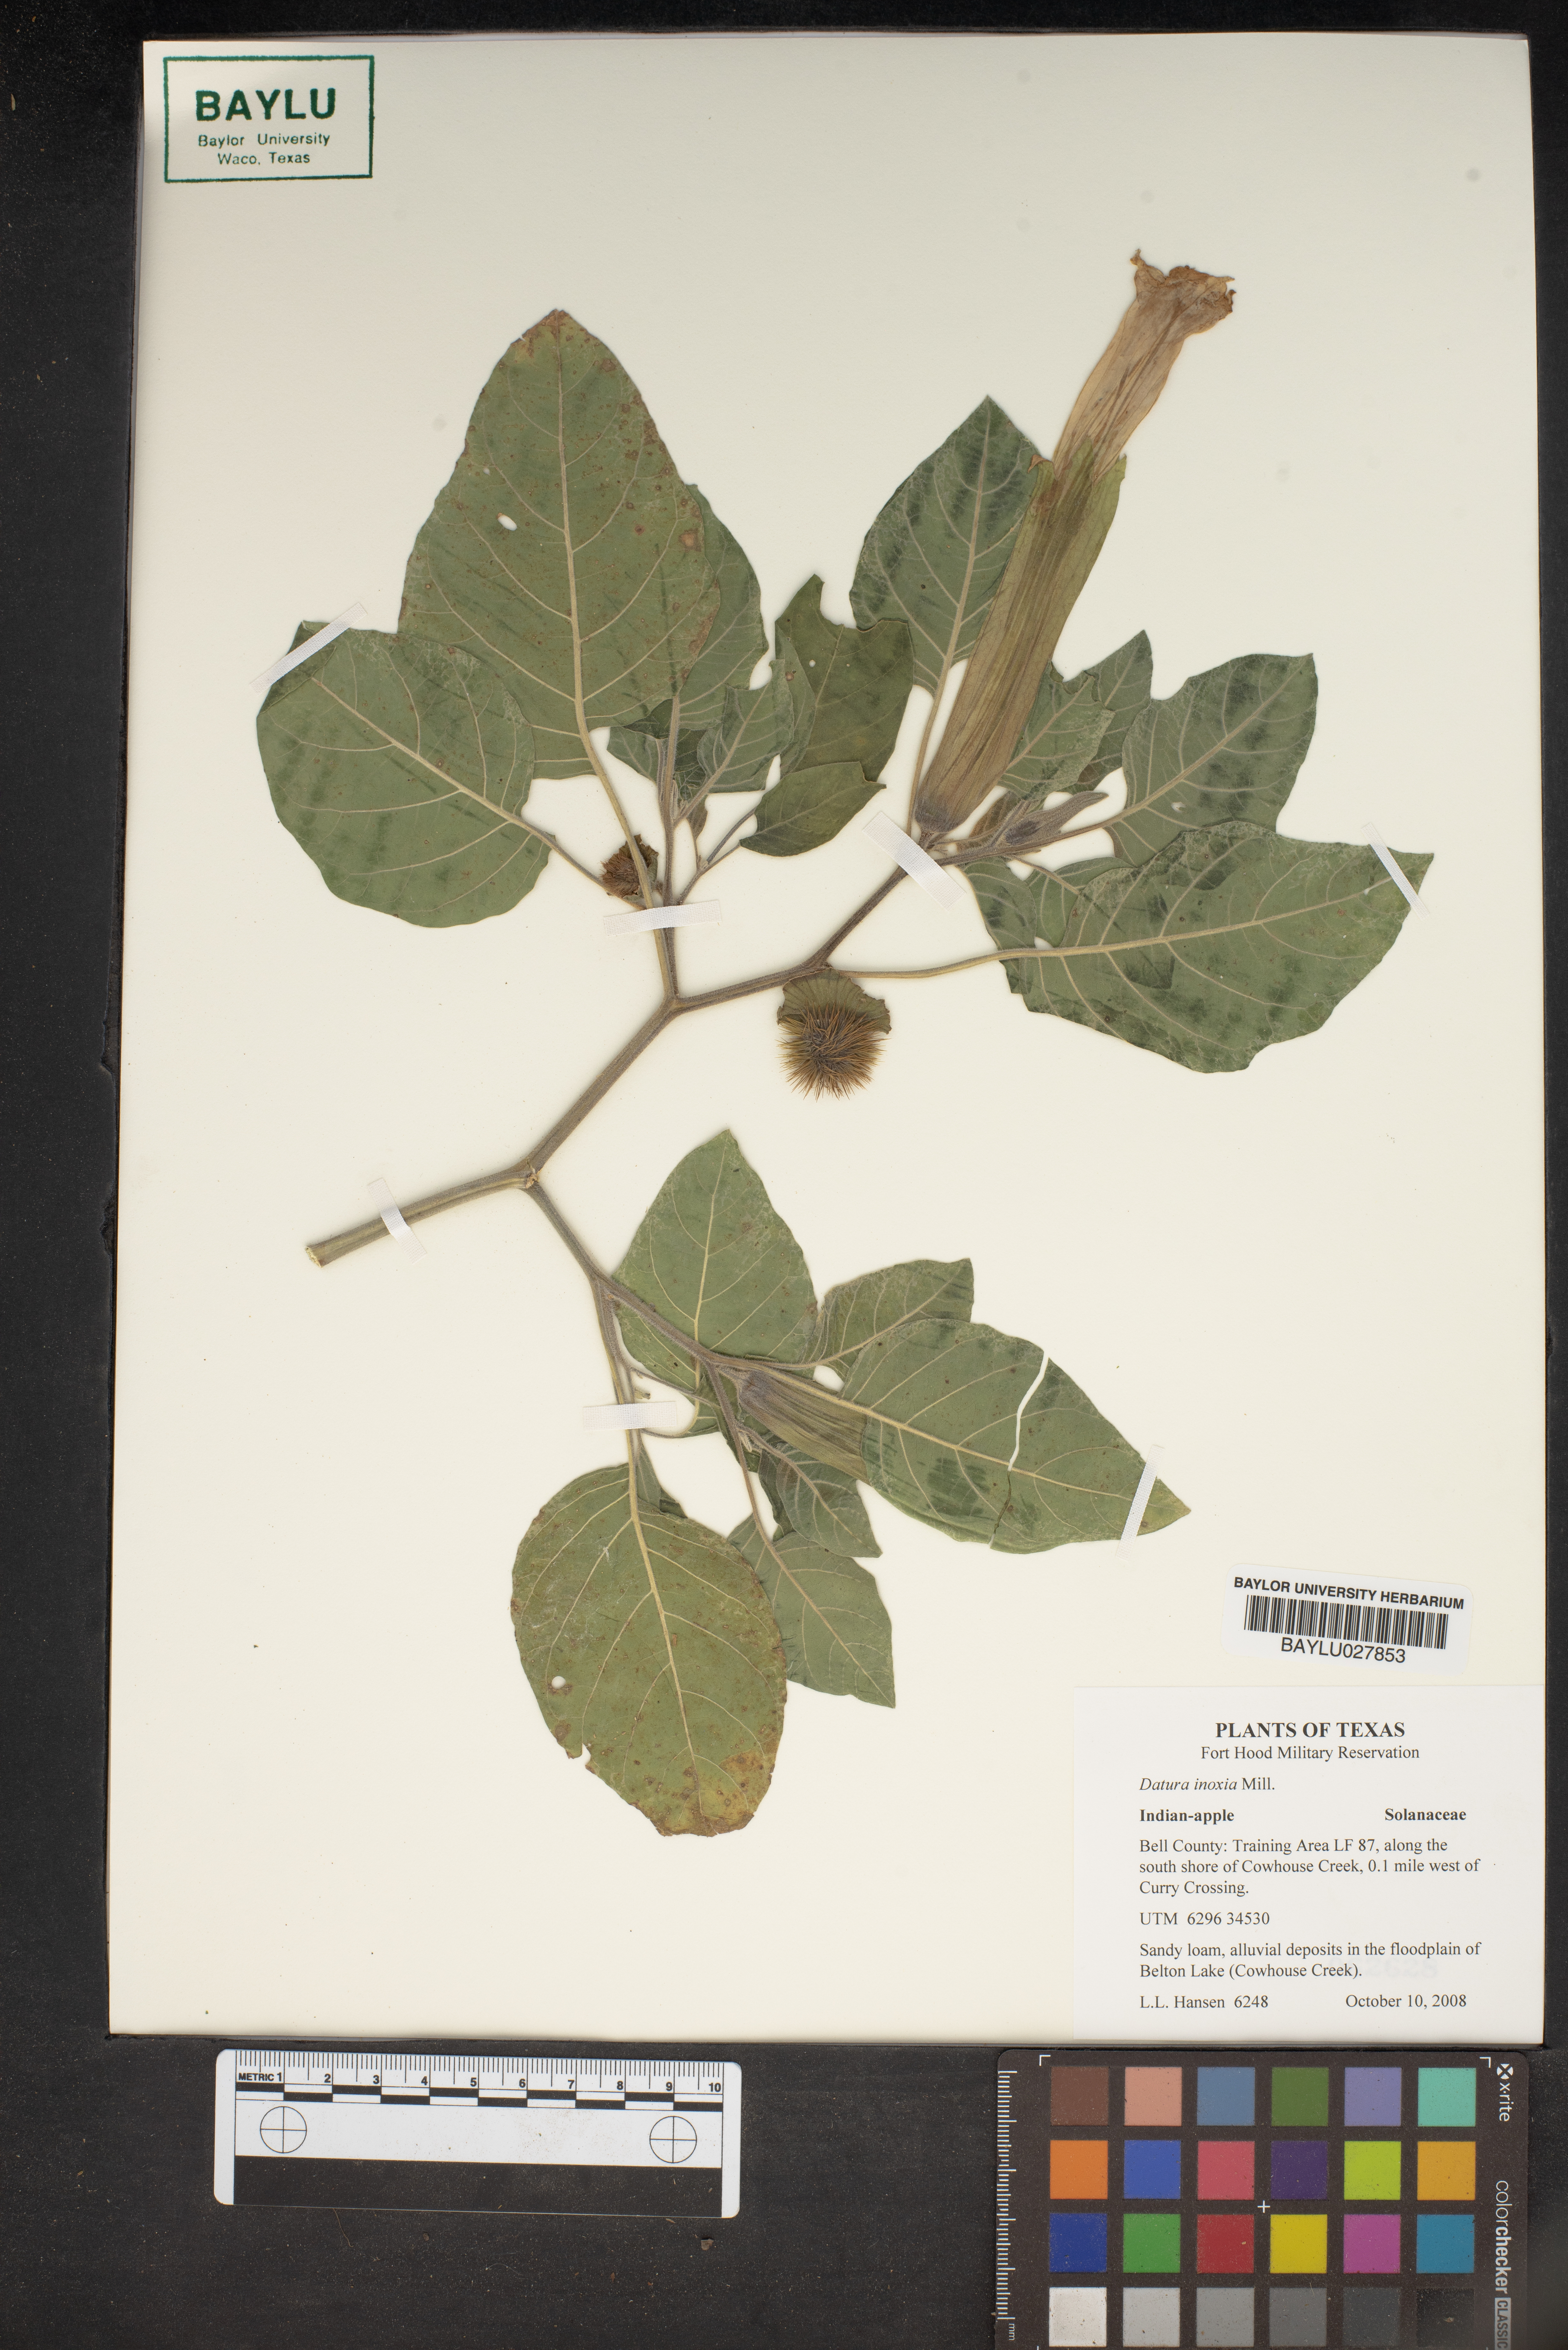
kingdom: Plantae
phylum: Tracheophyta
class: Magnoliopsida
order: Solanales
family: Solanaceae
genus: Datura
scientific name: Datura innoxia
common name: Downy thorn-apple
